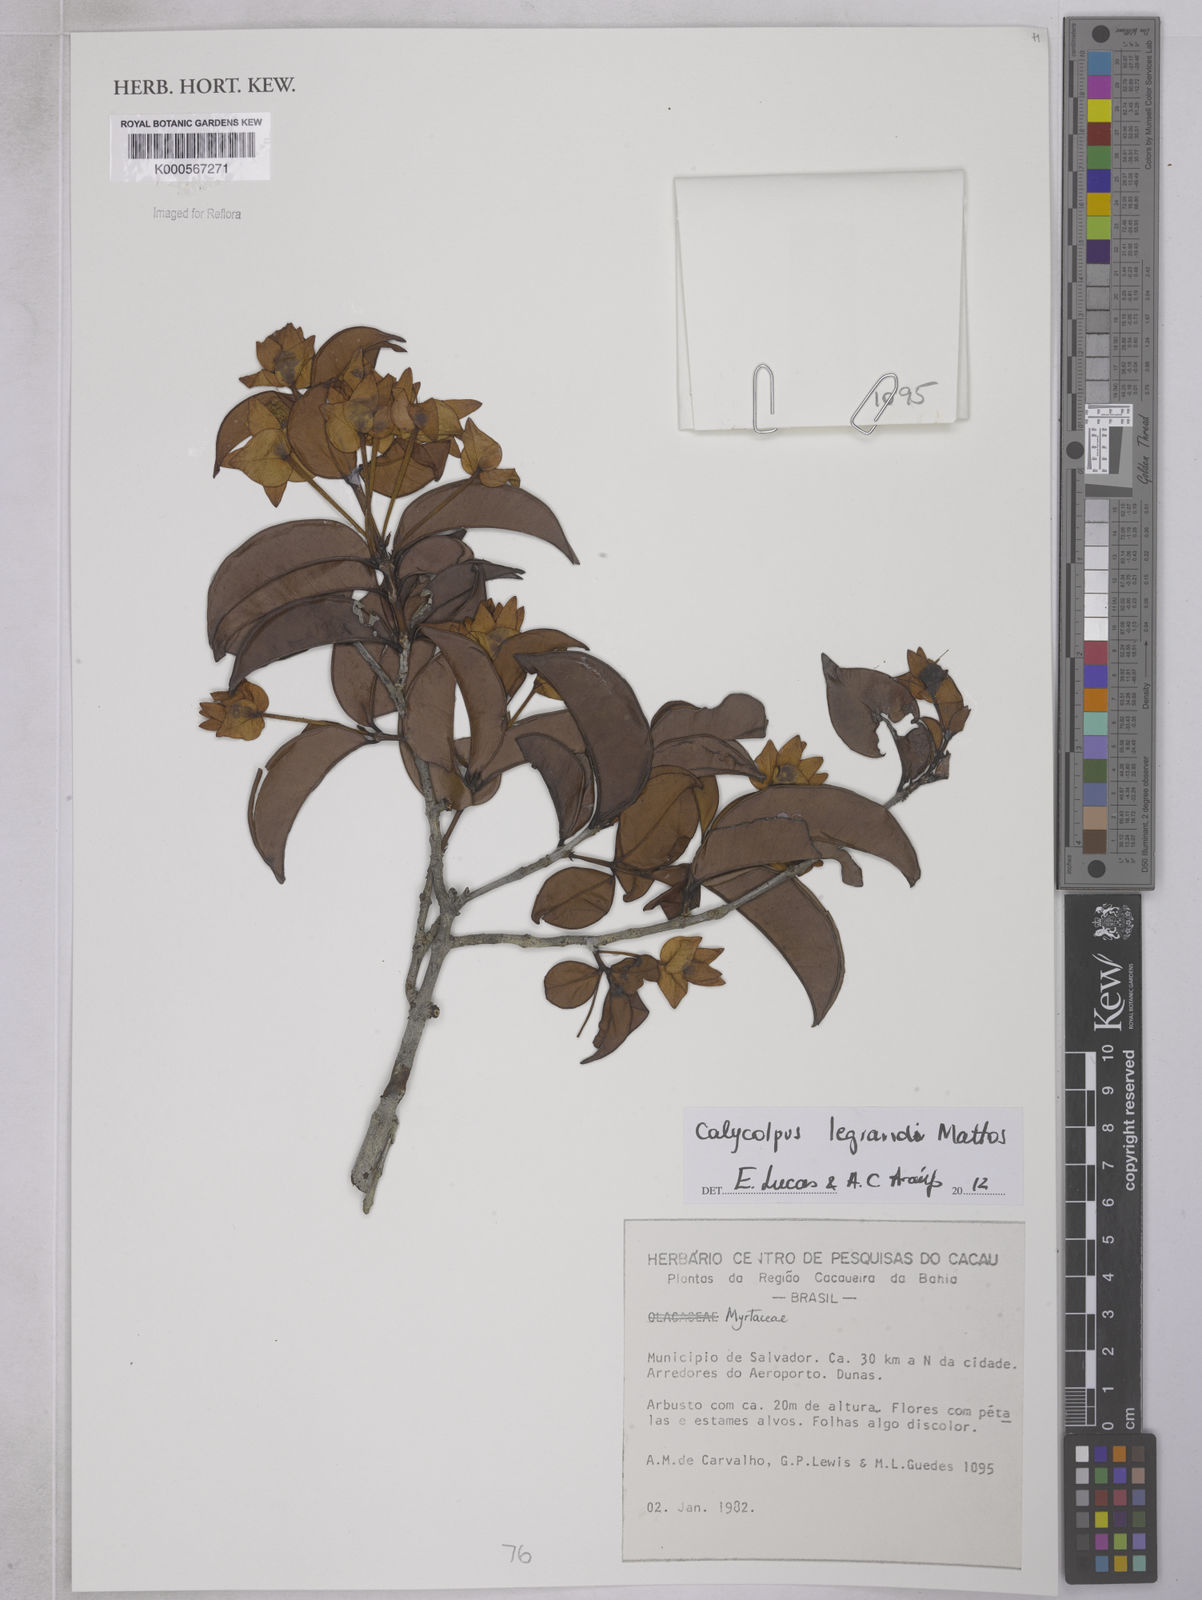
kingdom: Plantae
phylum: Tracheophyta
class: Magnoliopsida
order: Myrtales
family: Myrtaceae
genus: Calycolpus
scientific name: Calycolpus legrandii
